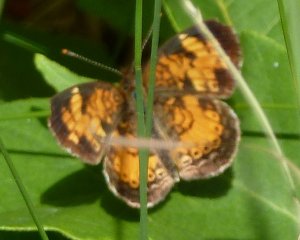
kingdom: Animalia
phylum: Arthropoda
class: Insecta
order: Lepidoptera
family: Nymphalidae
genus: Phyciodes
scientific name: Phyciodes tharos
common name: Northern Crescent
